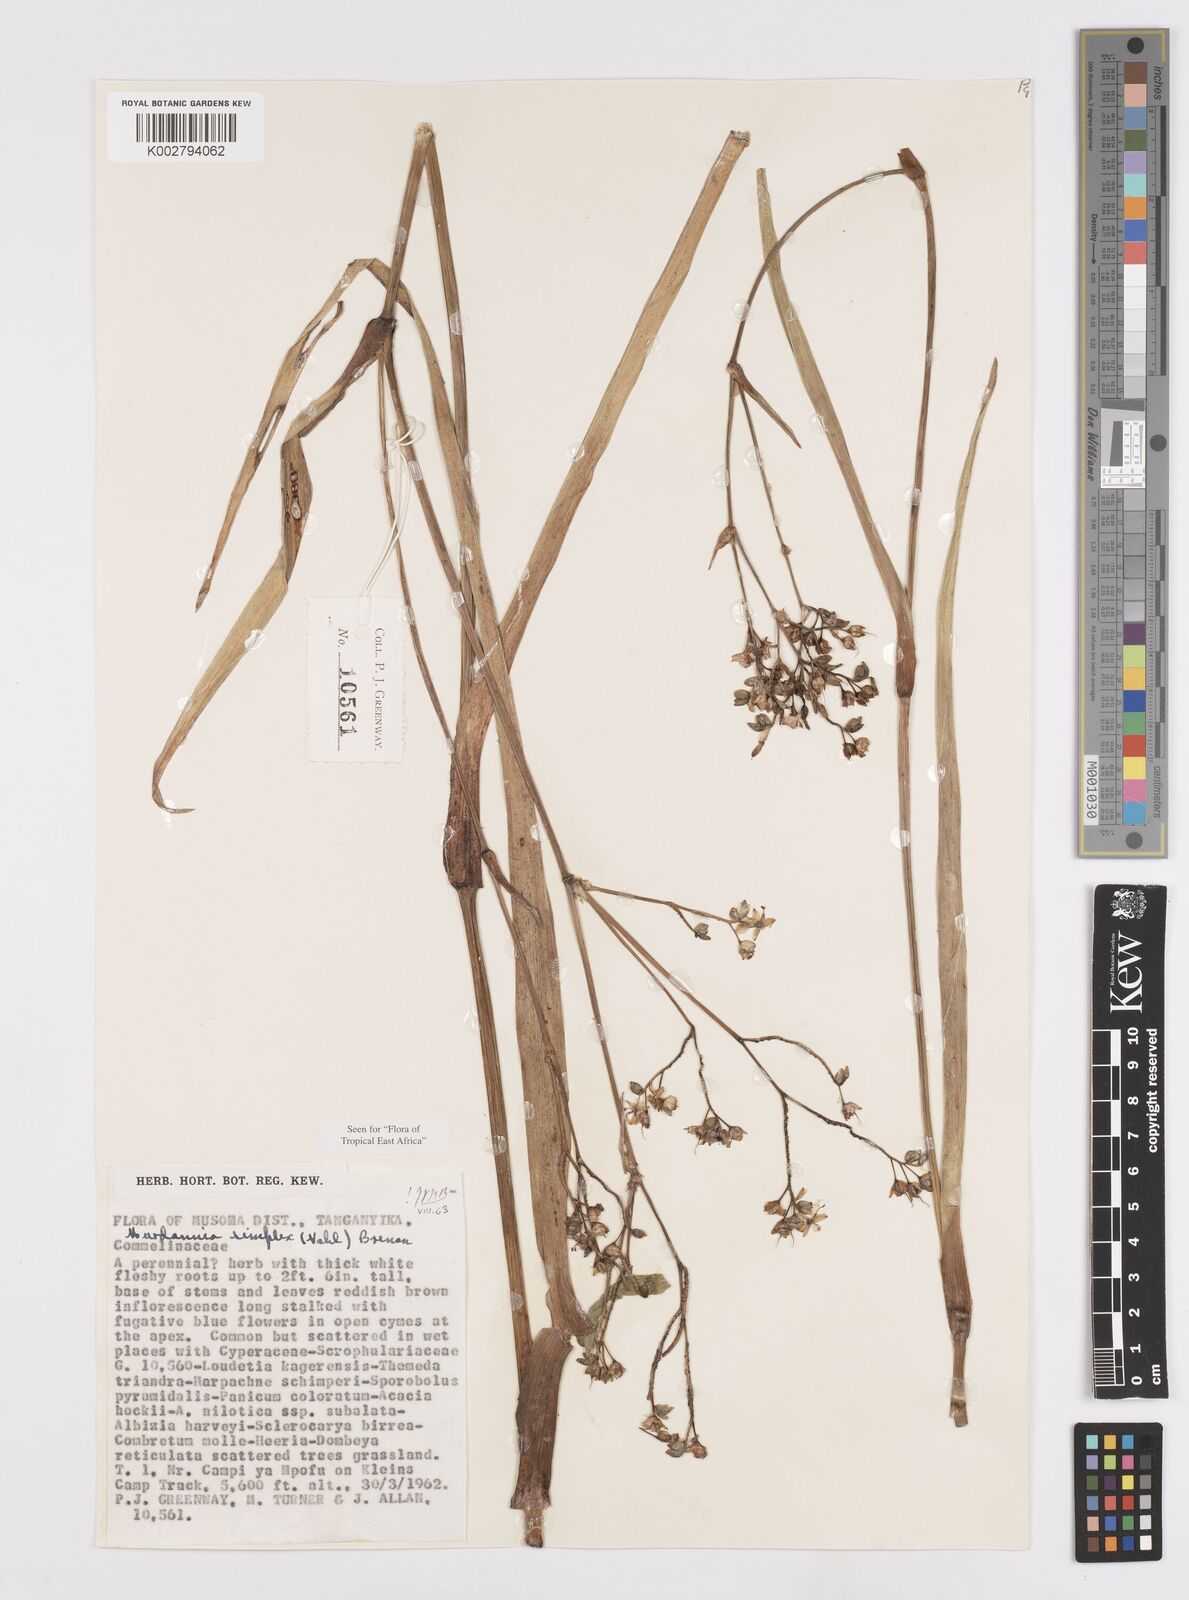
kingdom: Plantae
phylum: Tracheophyta
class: Liliopsida
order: Commelinales
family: Commelinaceae
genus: Murdannia
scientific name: Murdannia simplex
